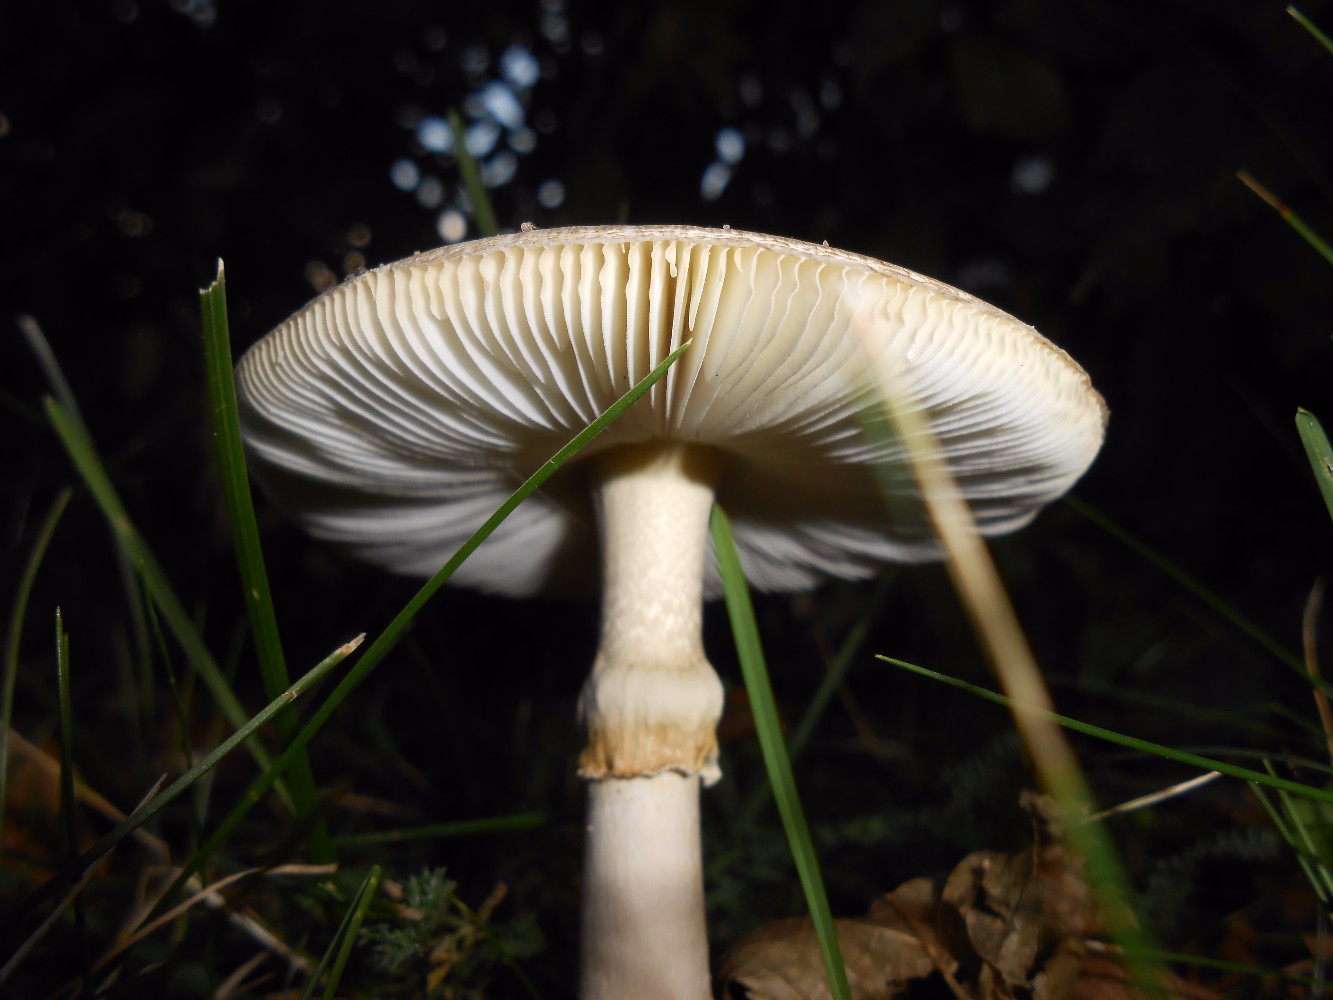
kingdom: Fungi
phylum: Basidiomycota
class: Agaricomycetes
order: Agaricales
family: Amanitaceae
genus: Amanita
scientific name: Amanita phalloides
